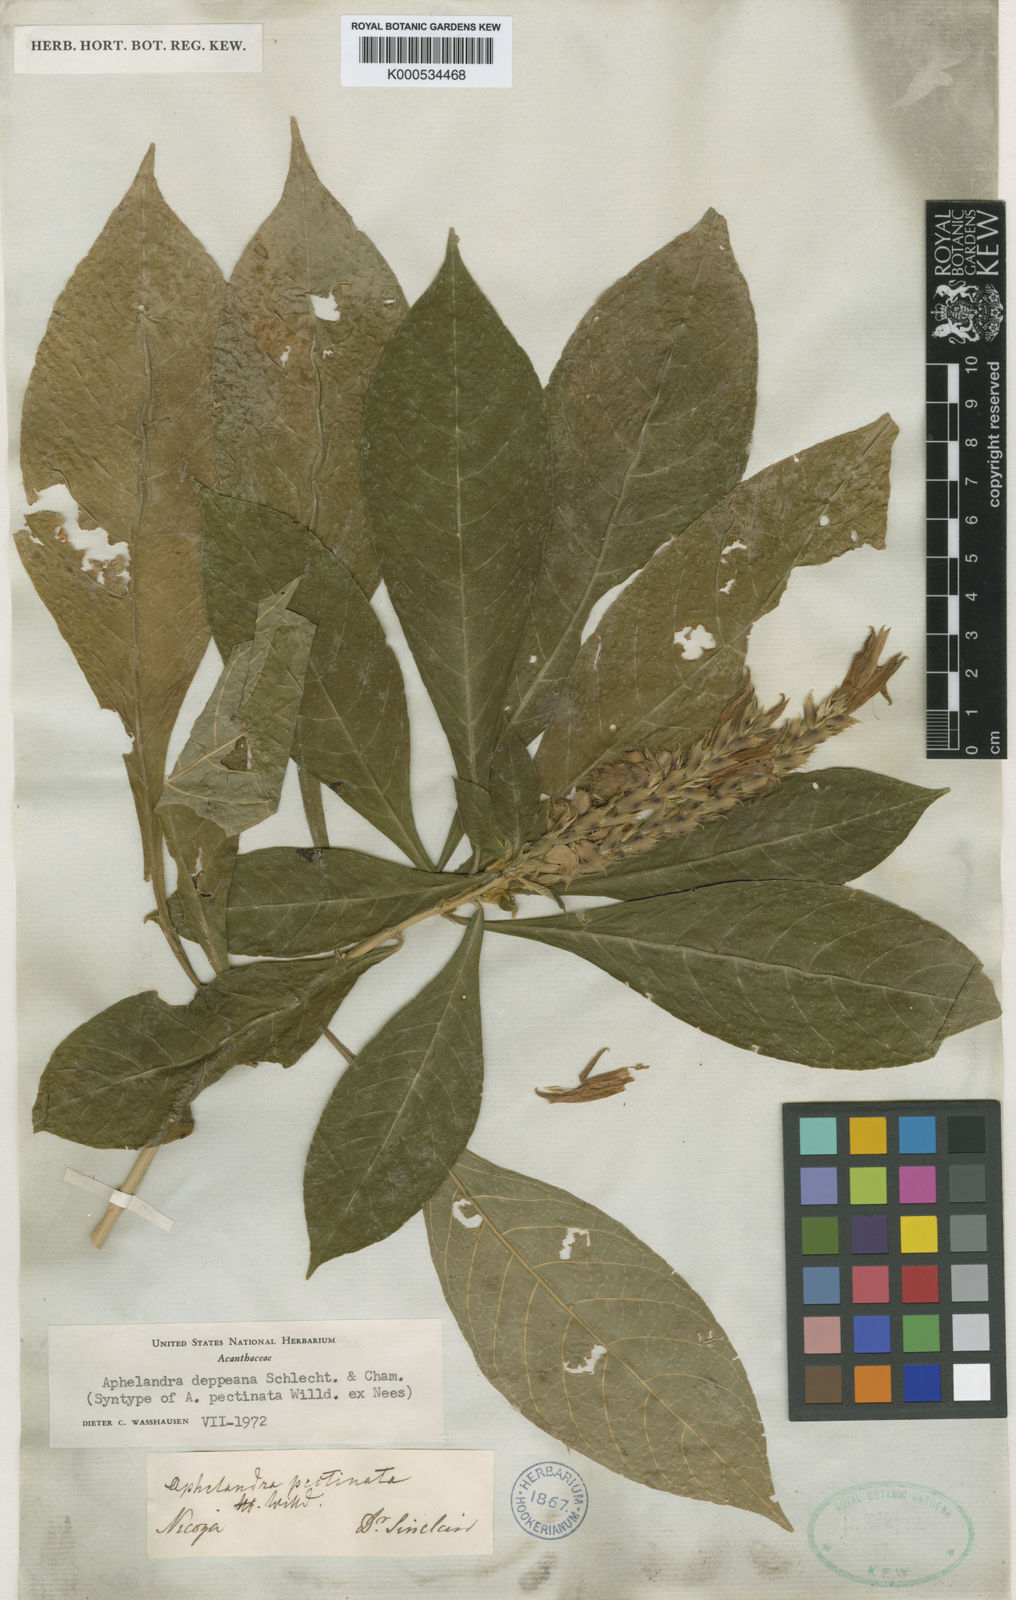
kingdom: Plantae
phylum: Tracheophyta
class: Magnoliopsida
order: Lamiales
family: Acanthaceae
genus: Aphelandra
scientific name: Aphelandra scabra
